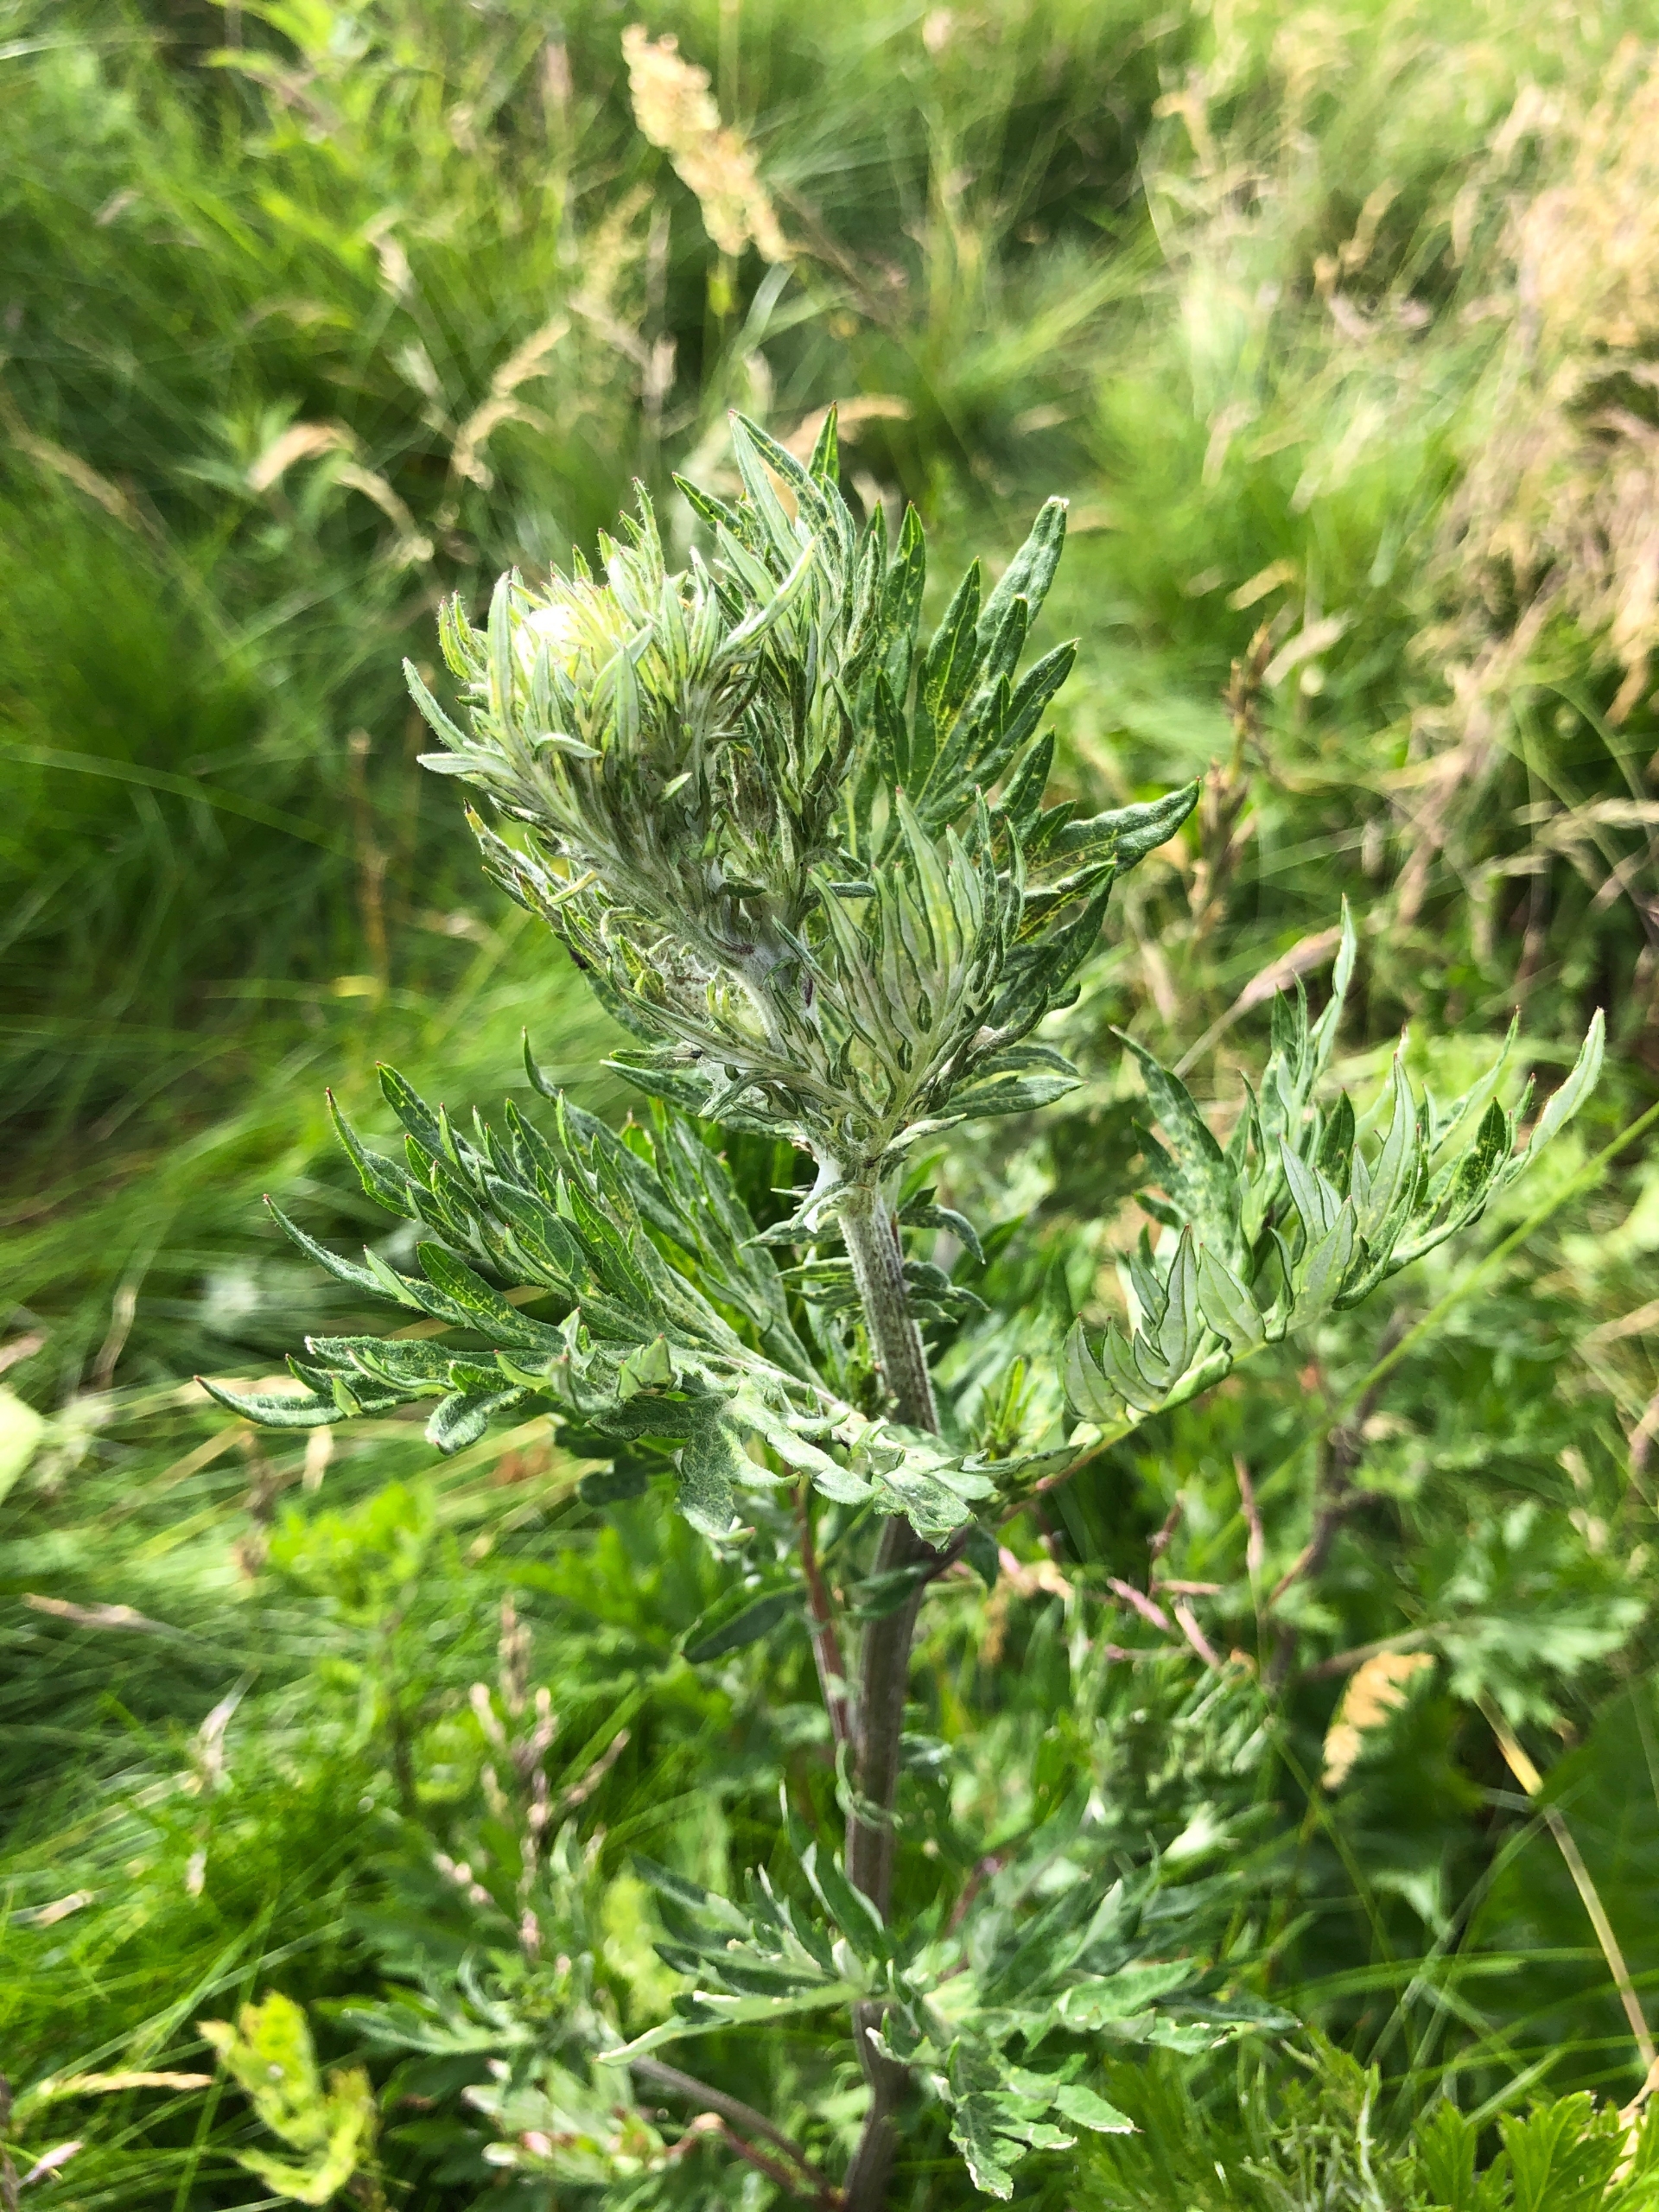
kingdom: Plantae
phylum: Tracheophyta
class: Magnoliopsida
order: Asterales
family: Asteraceae
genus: Artemisia
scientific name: Artemisia vulgaris
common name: Grå-bynke
